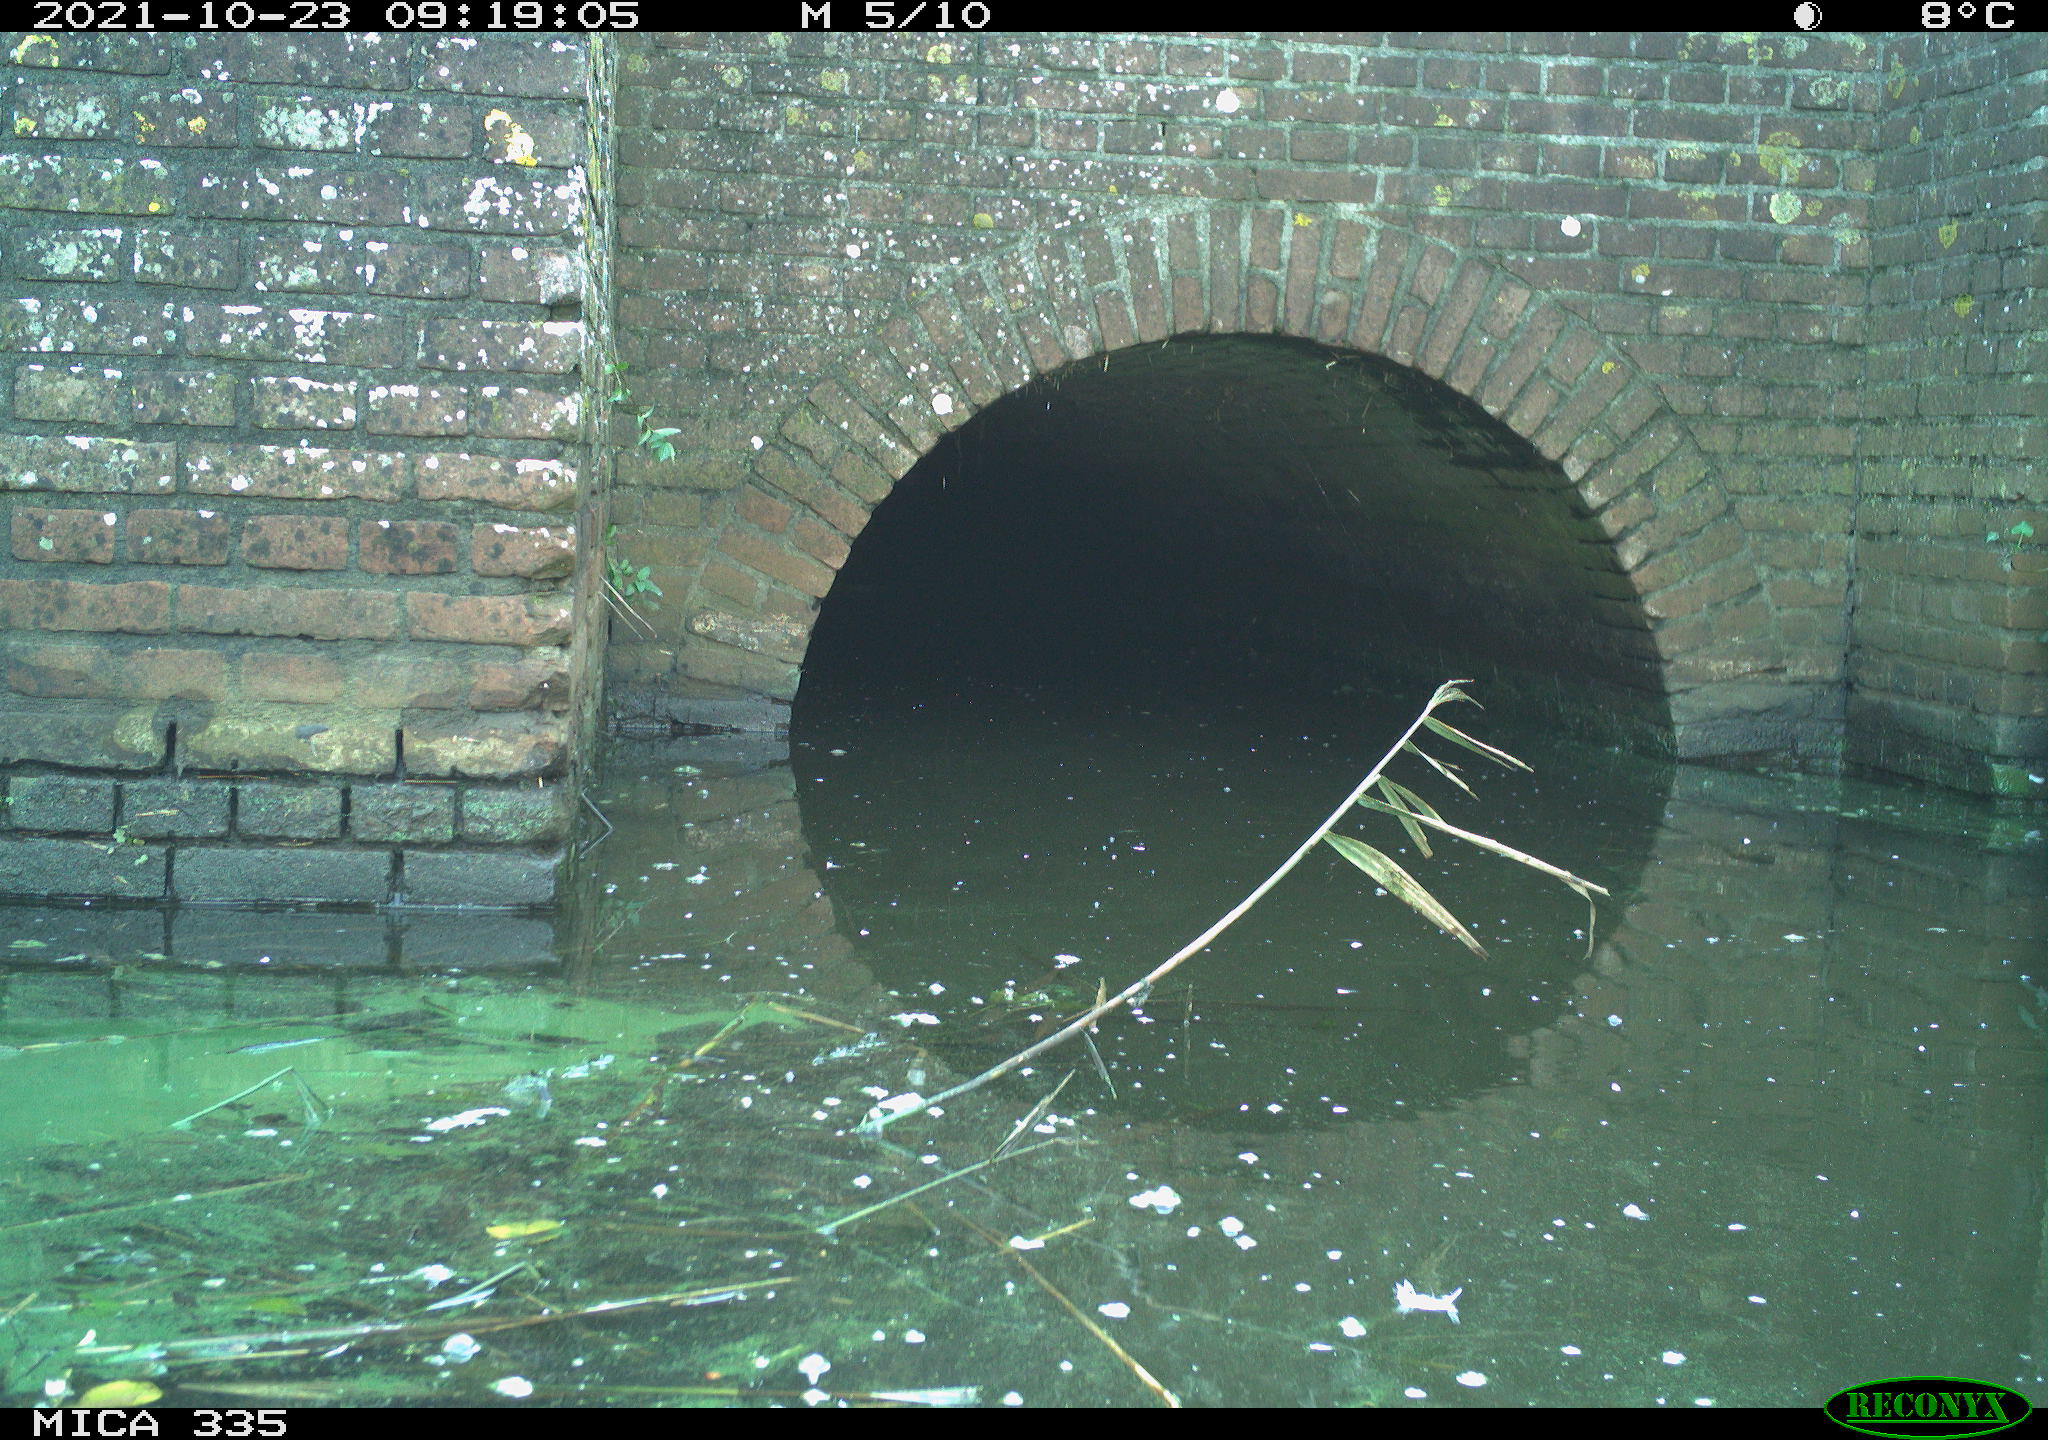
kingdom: Animalia
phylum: Chordata
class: Aves
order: Anseriformes
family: Anatidae
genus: Anas
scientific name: Anas platyrhynchos
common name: Mallard
